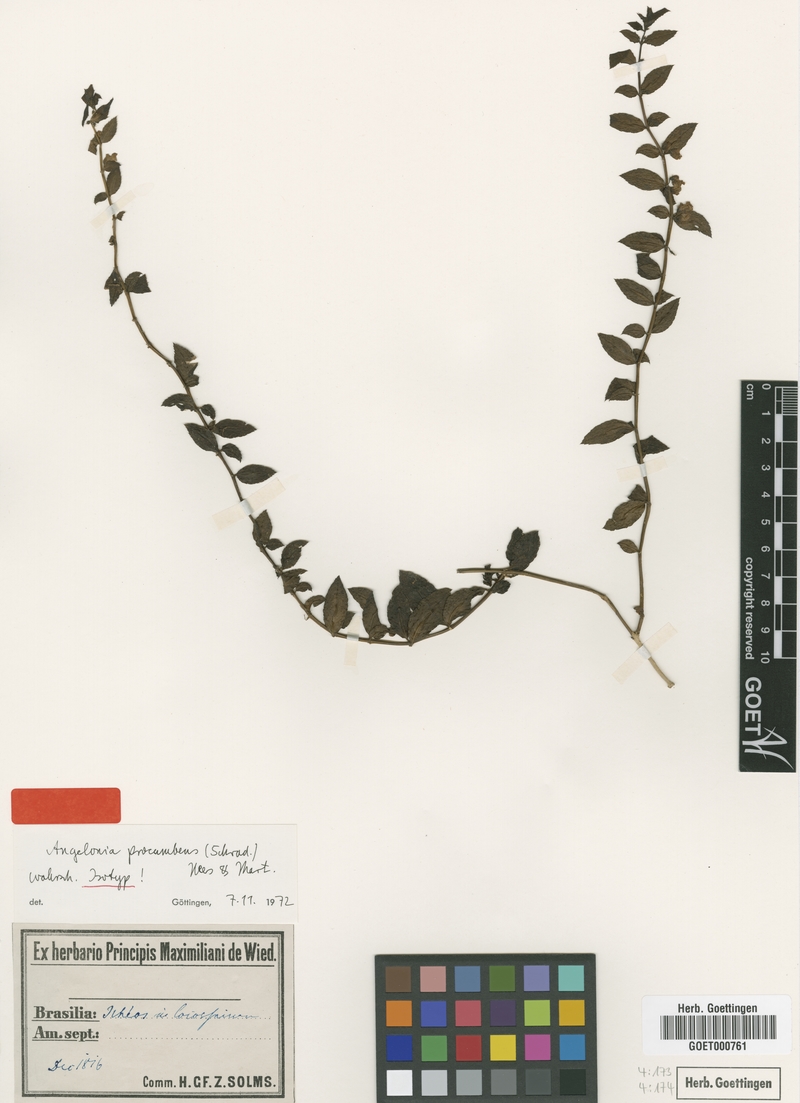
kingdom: Plantae
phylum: Tracheophyta
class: Magnoliopsida
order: Lamiales
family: Plantaginaceae
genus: Angelonia
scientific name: Angelonia procumbens
